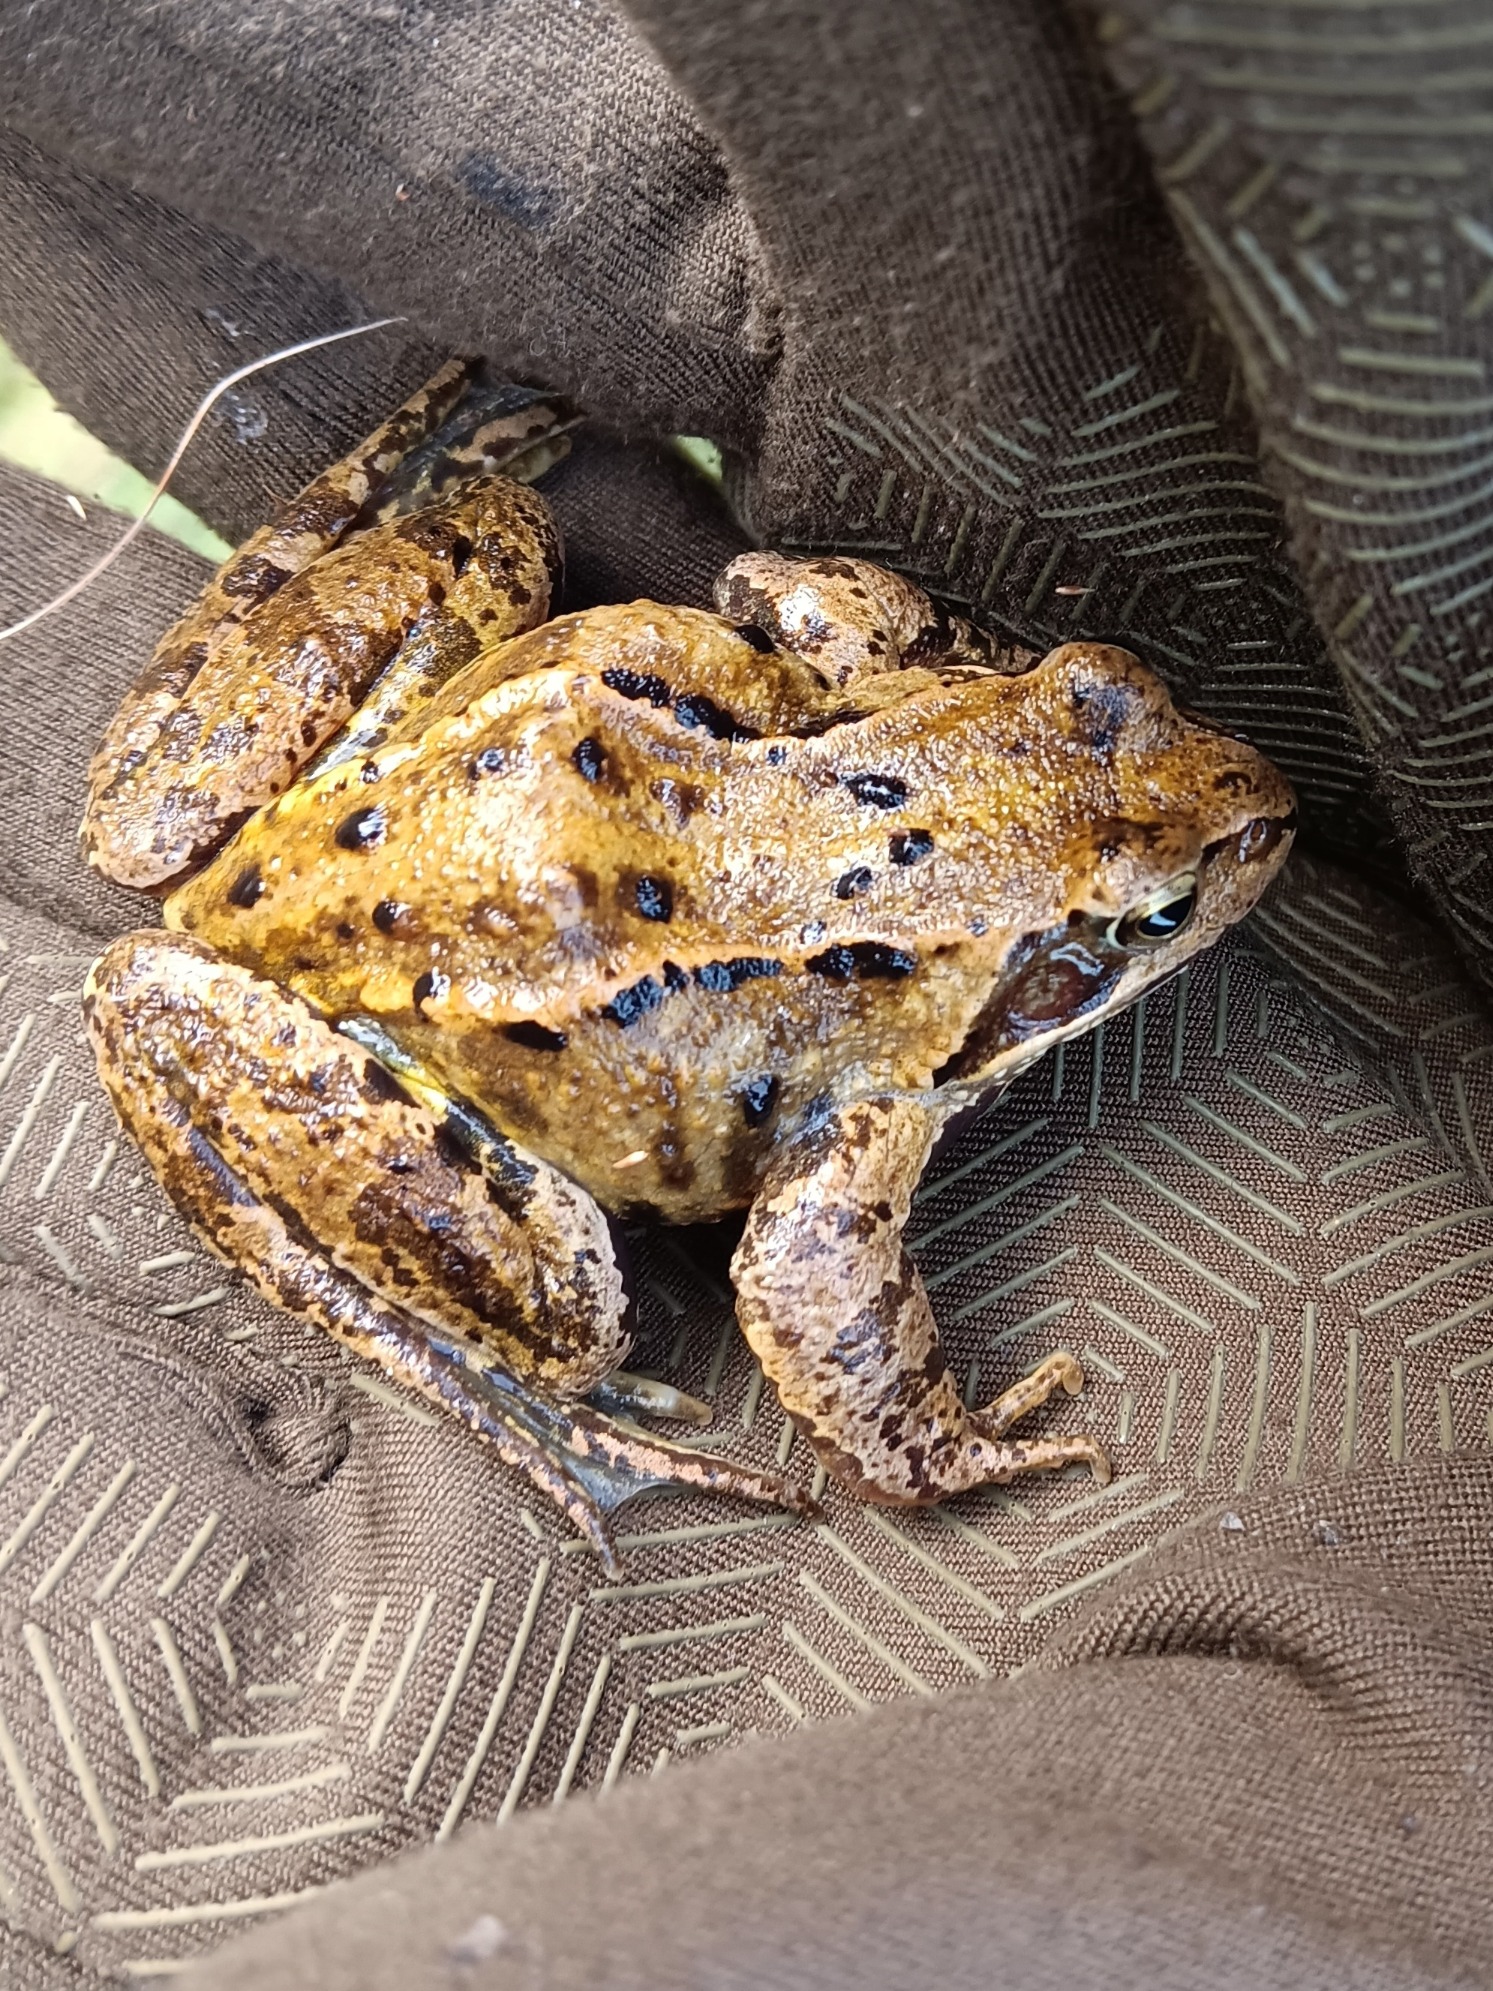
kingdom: Animalia
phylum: Chordata
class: Amphibia
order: Anura
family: Ranidae
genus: Rana
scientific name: Rana temporaria
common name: Butsnudet frø
